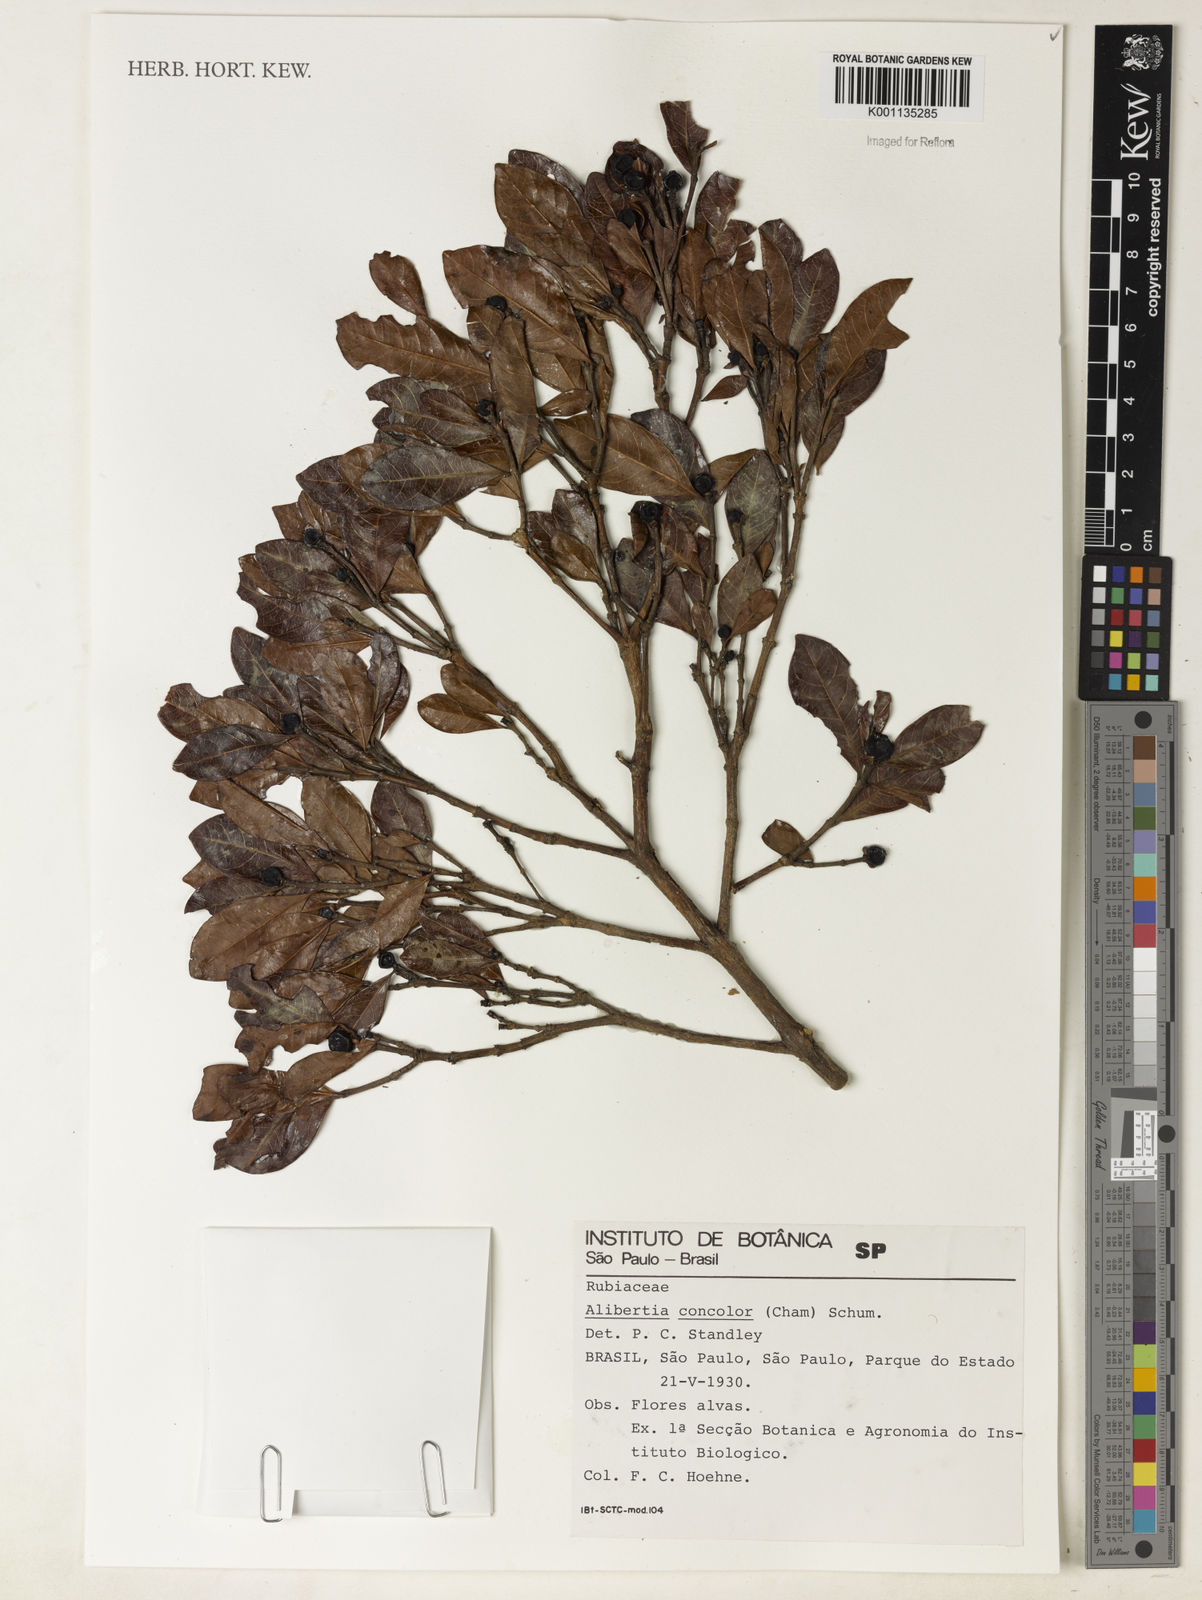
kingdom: Plantae
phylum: Tracheophyta
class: Magnoliopsida
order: Gentianales
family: Rubiaceae
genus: Cordiera
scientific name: Cordiera concolor
